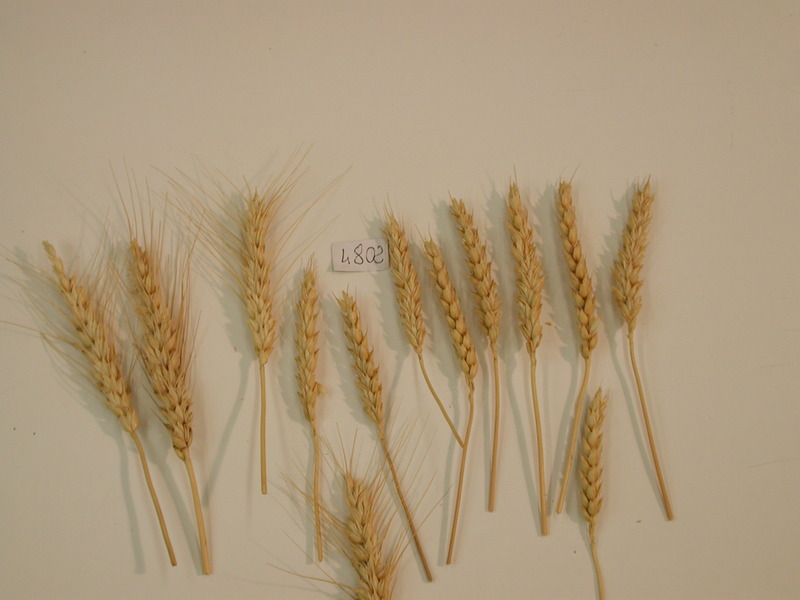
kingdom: Plantae
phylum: Tracheophyta
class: Liliopsida
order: Poales
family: Poaceae
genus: Triticum
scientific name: Triticum aestivum
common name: Wheat
